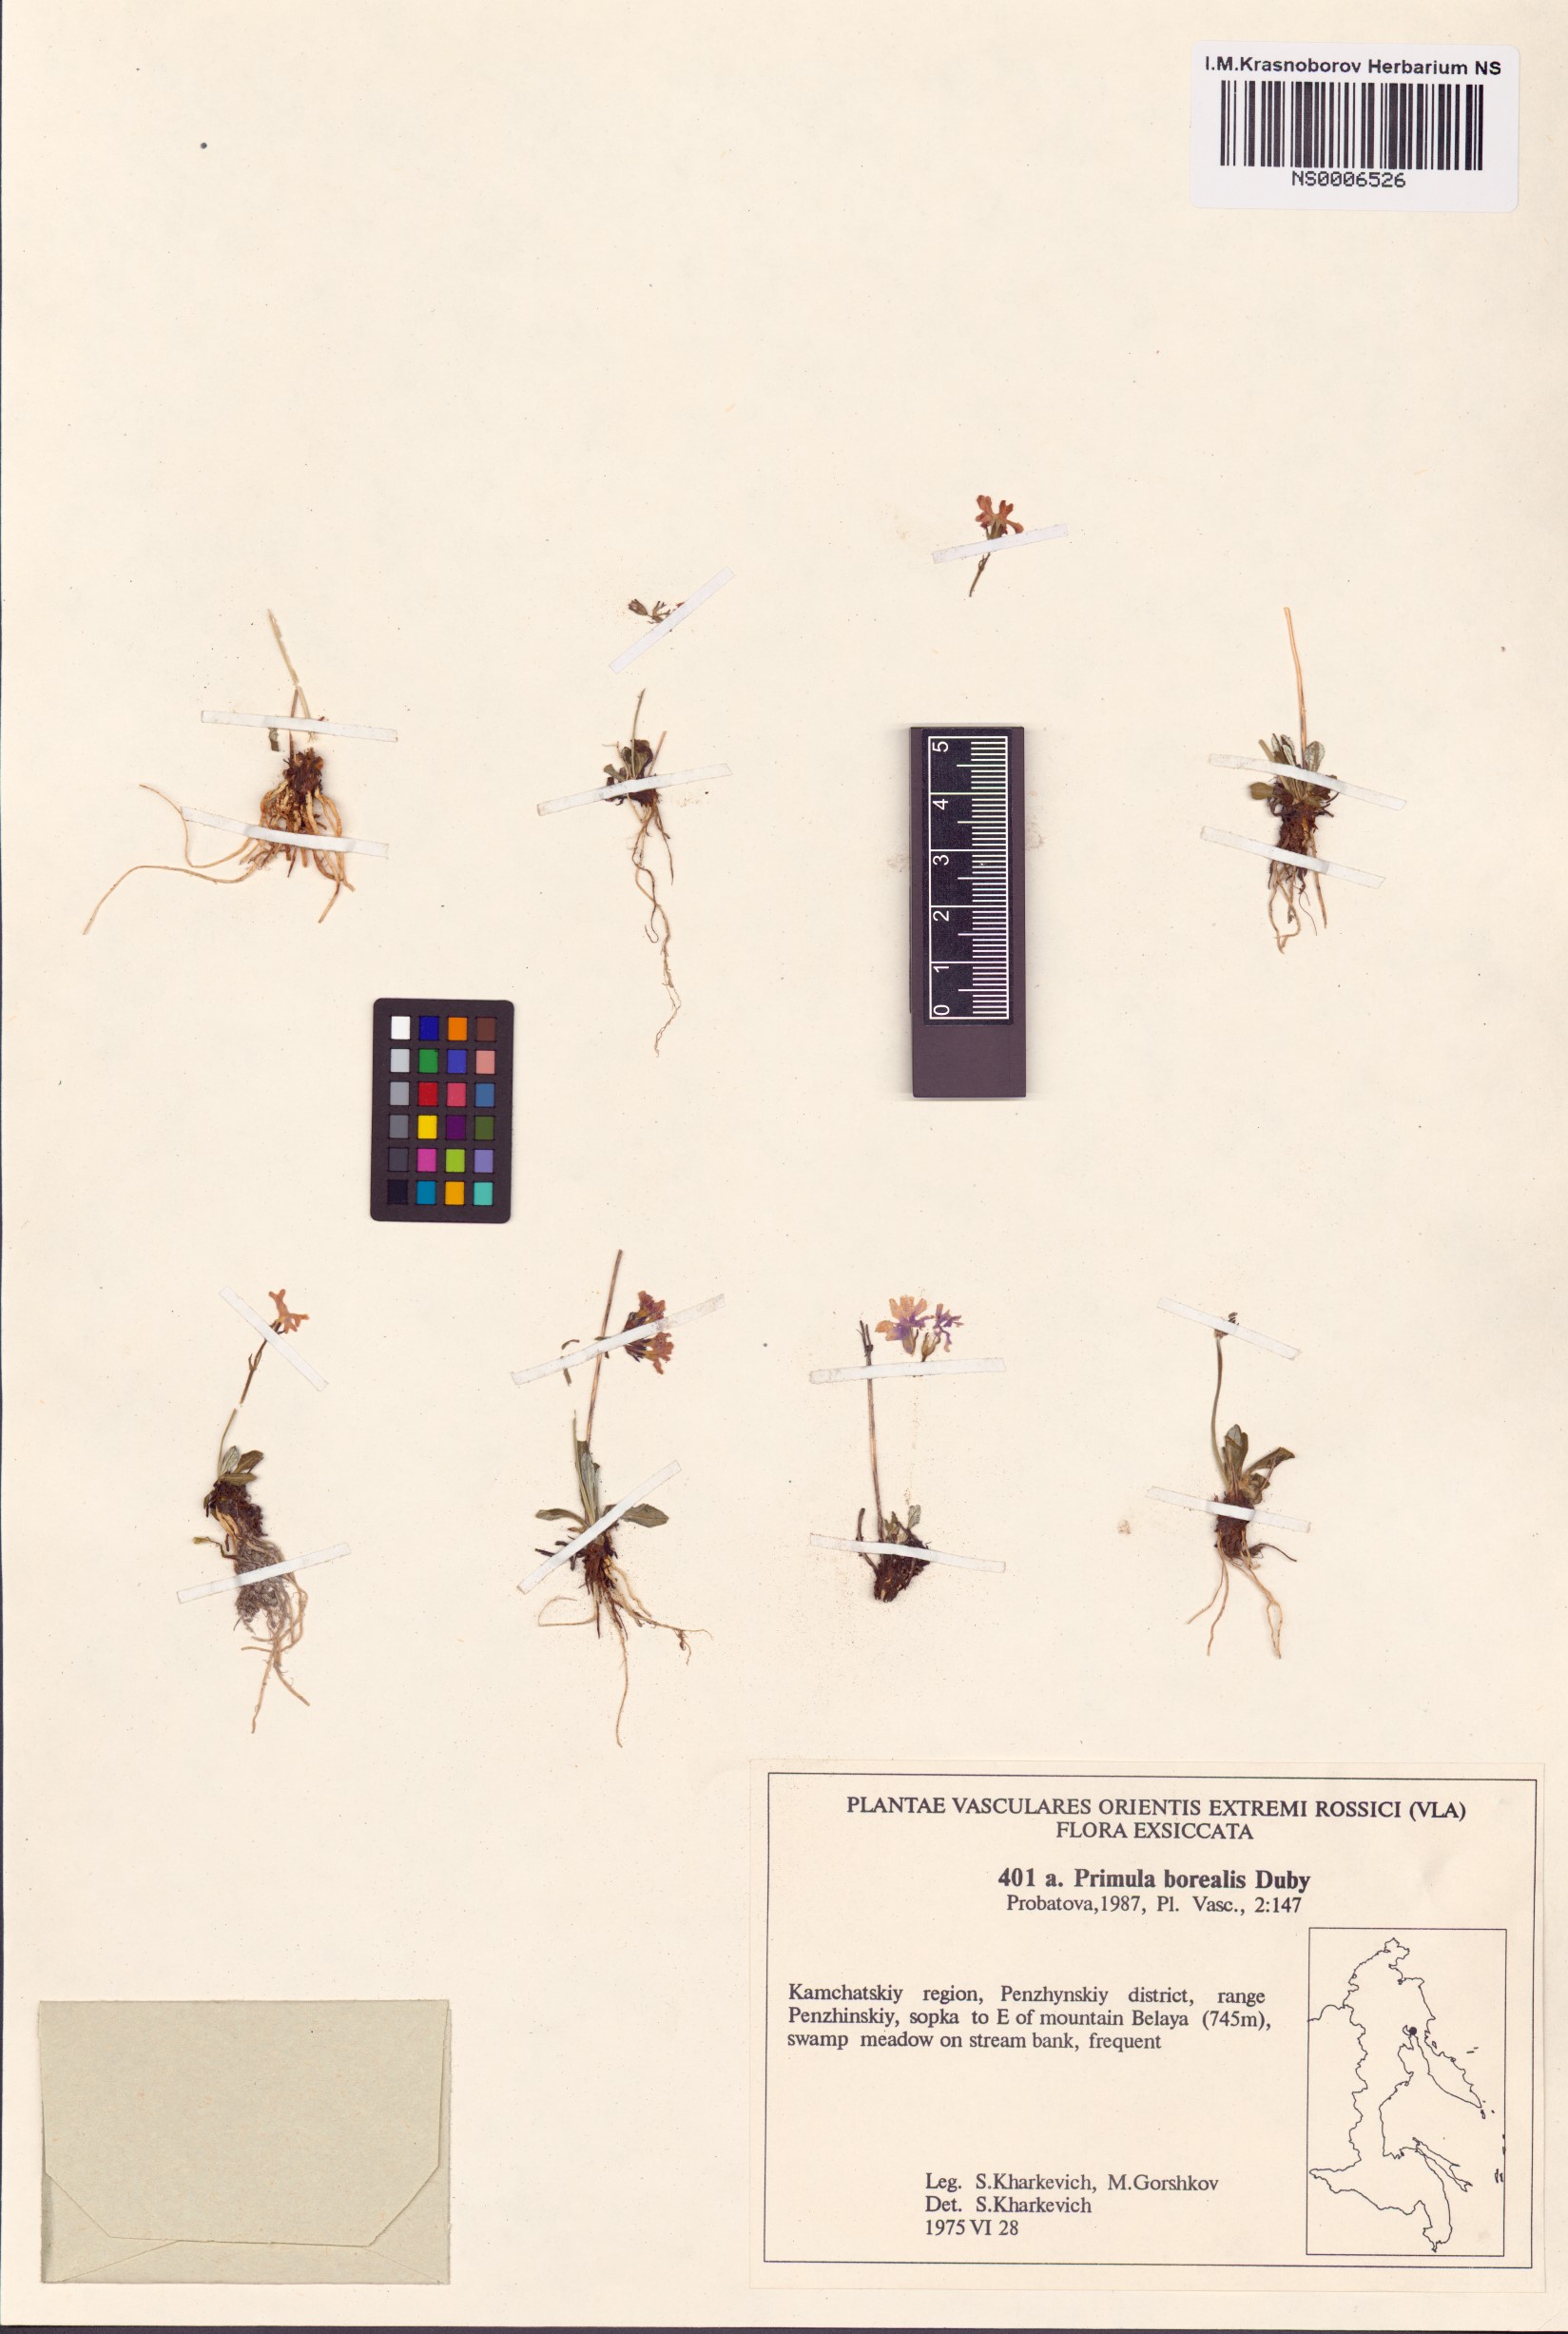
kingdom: Plantae
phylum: Tracheophyta
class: Magnoliopsida
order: Ericales
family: Primulaceae
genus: Primula
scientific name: Primula borealis
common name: Northern primrose
